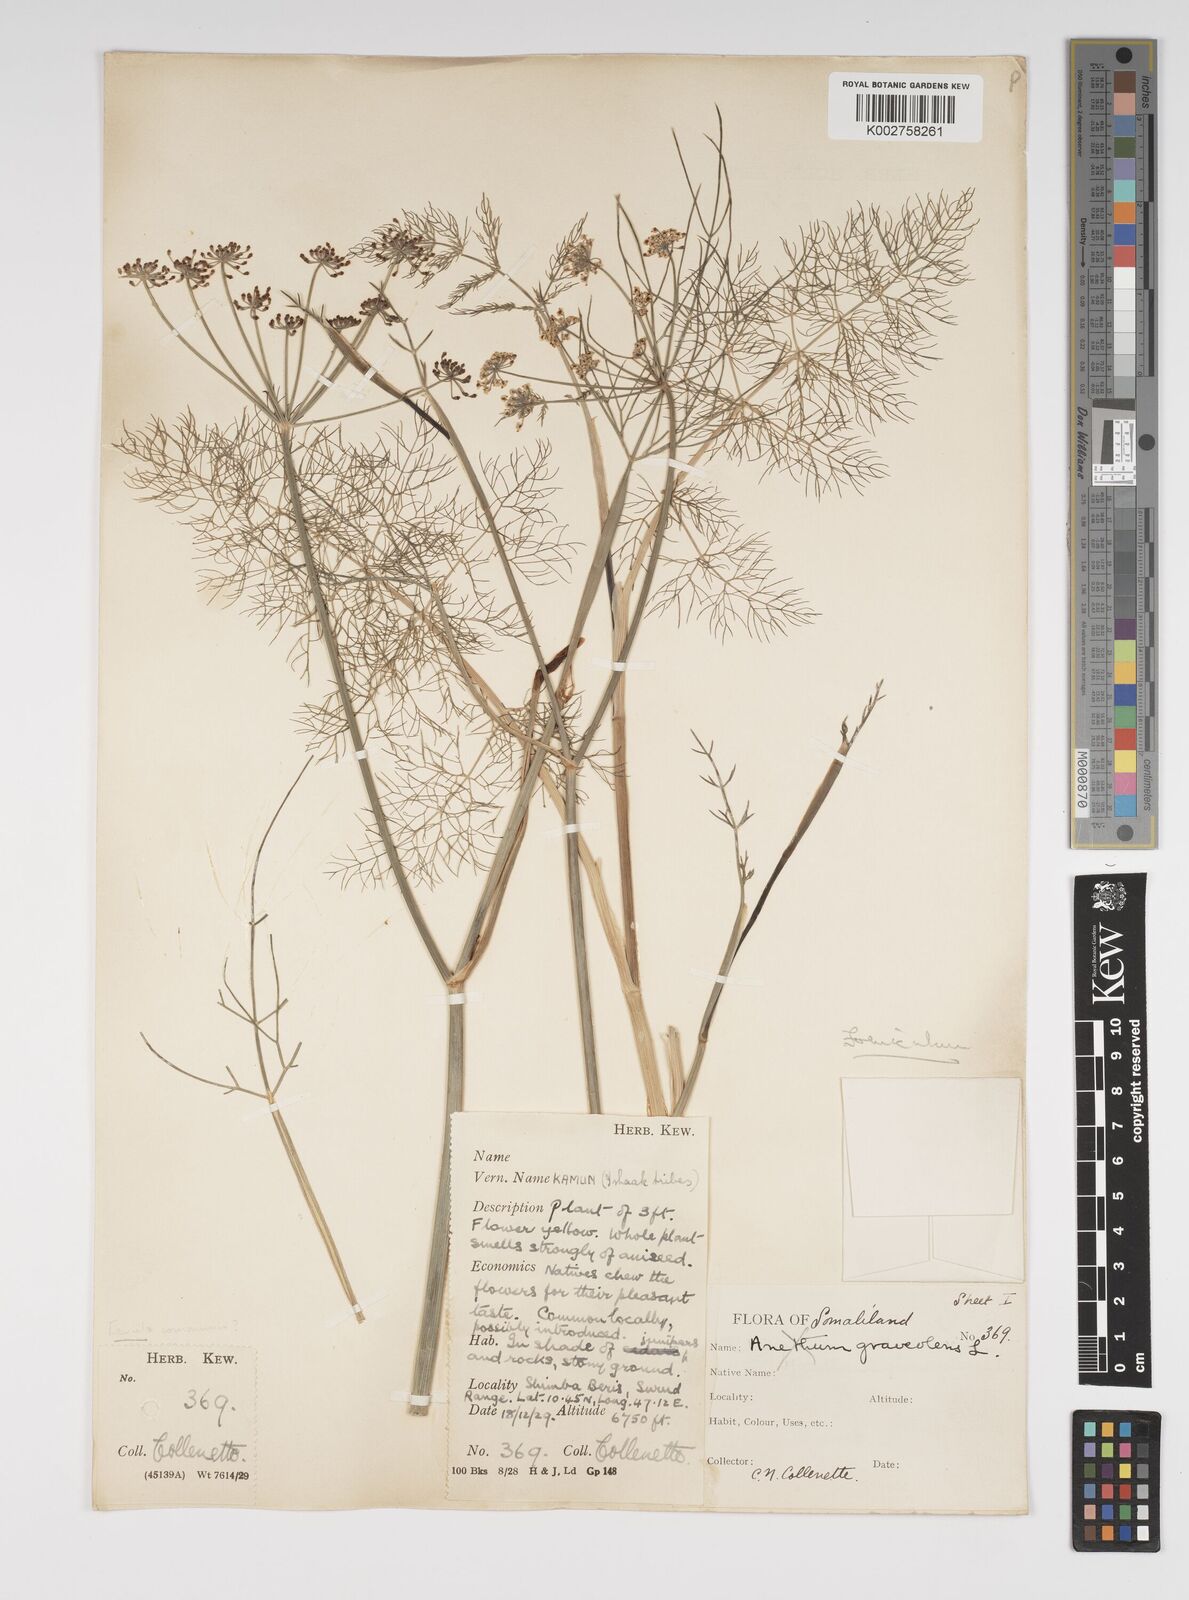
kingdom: Plantae
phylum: Tracheophyta
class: Magnoliopsida
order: Apiales
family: Apiaceae
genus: Foeniculum
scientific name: Foeniculum vulgare
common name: Fennel
